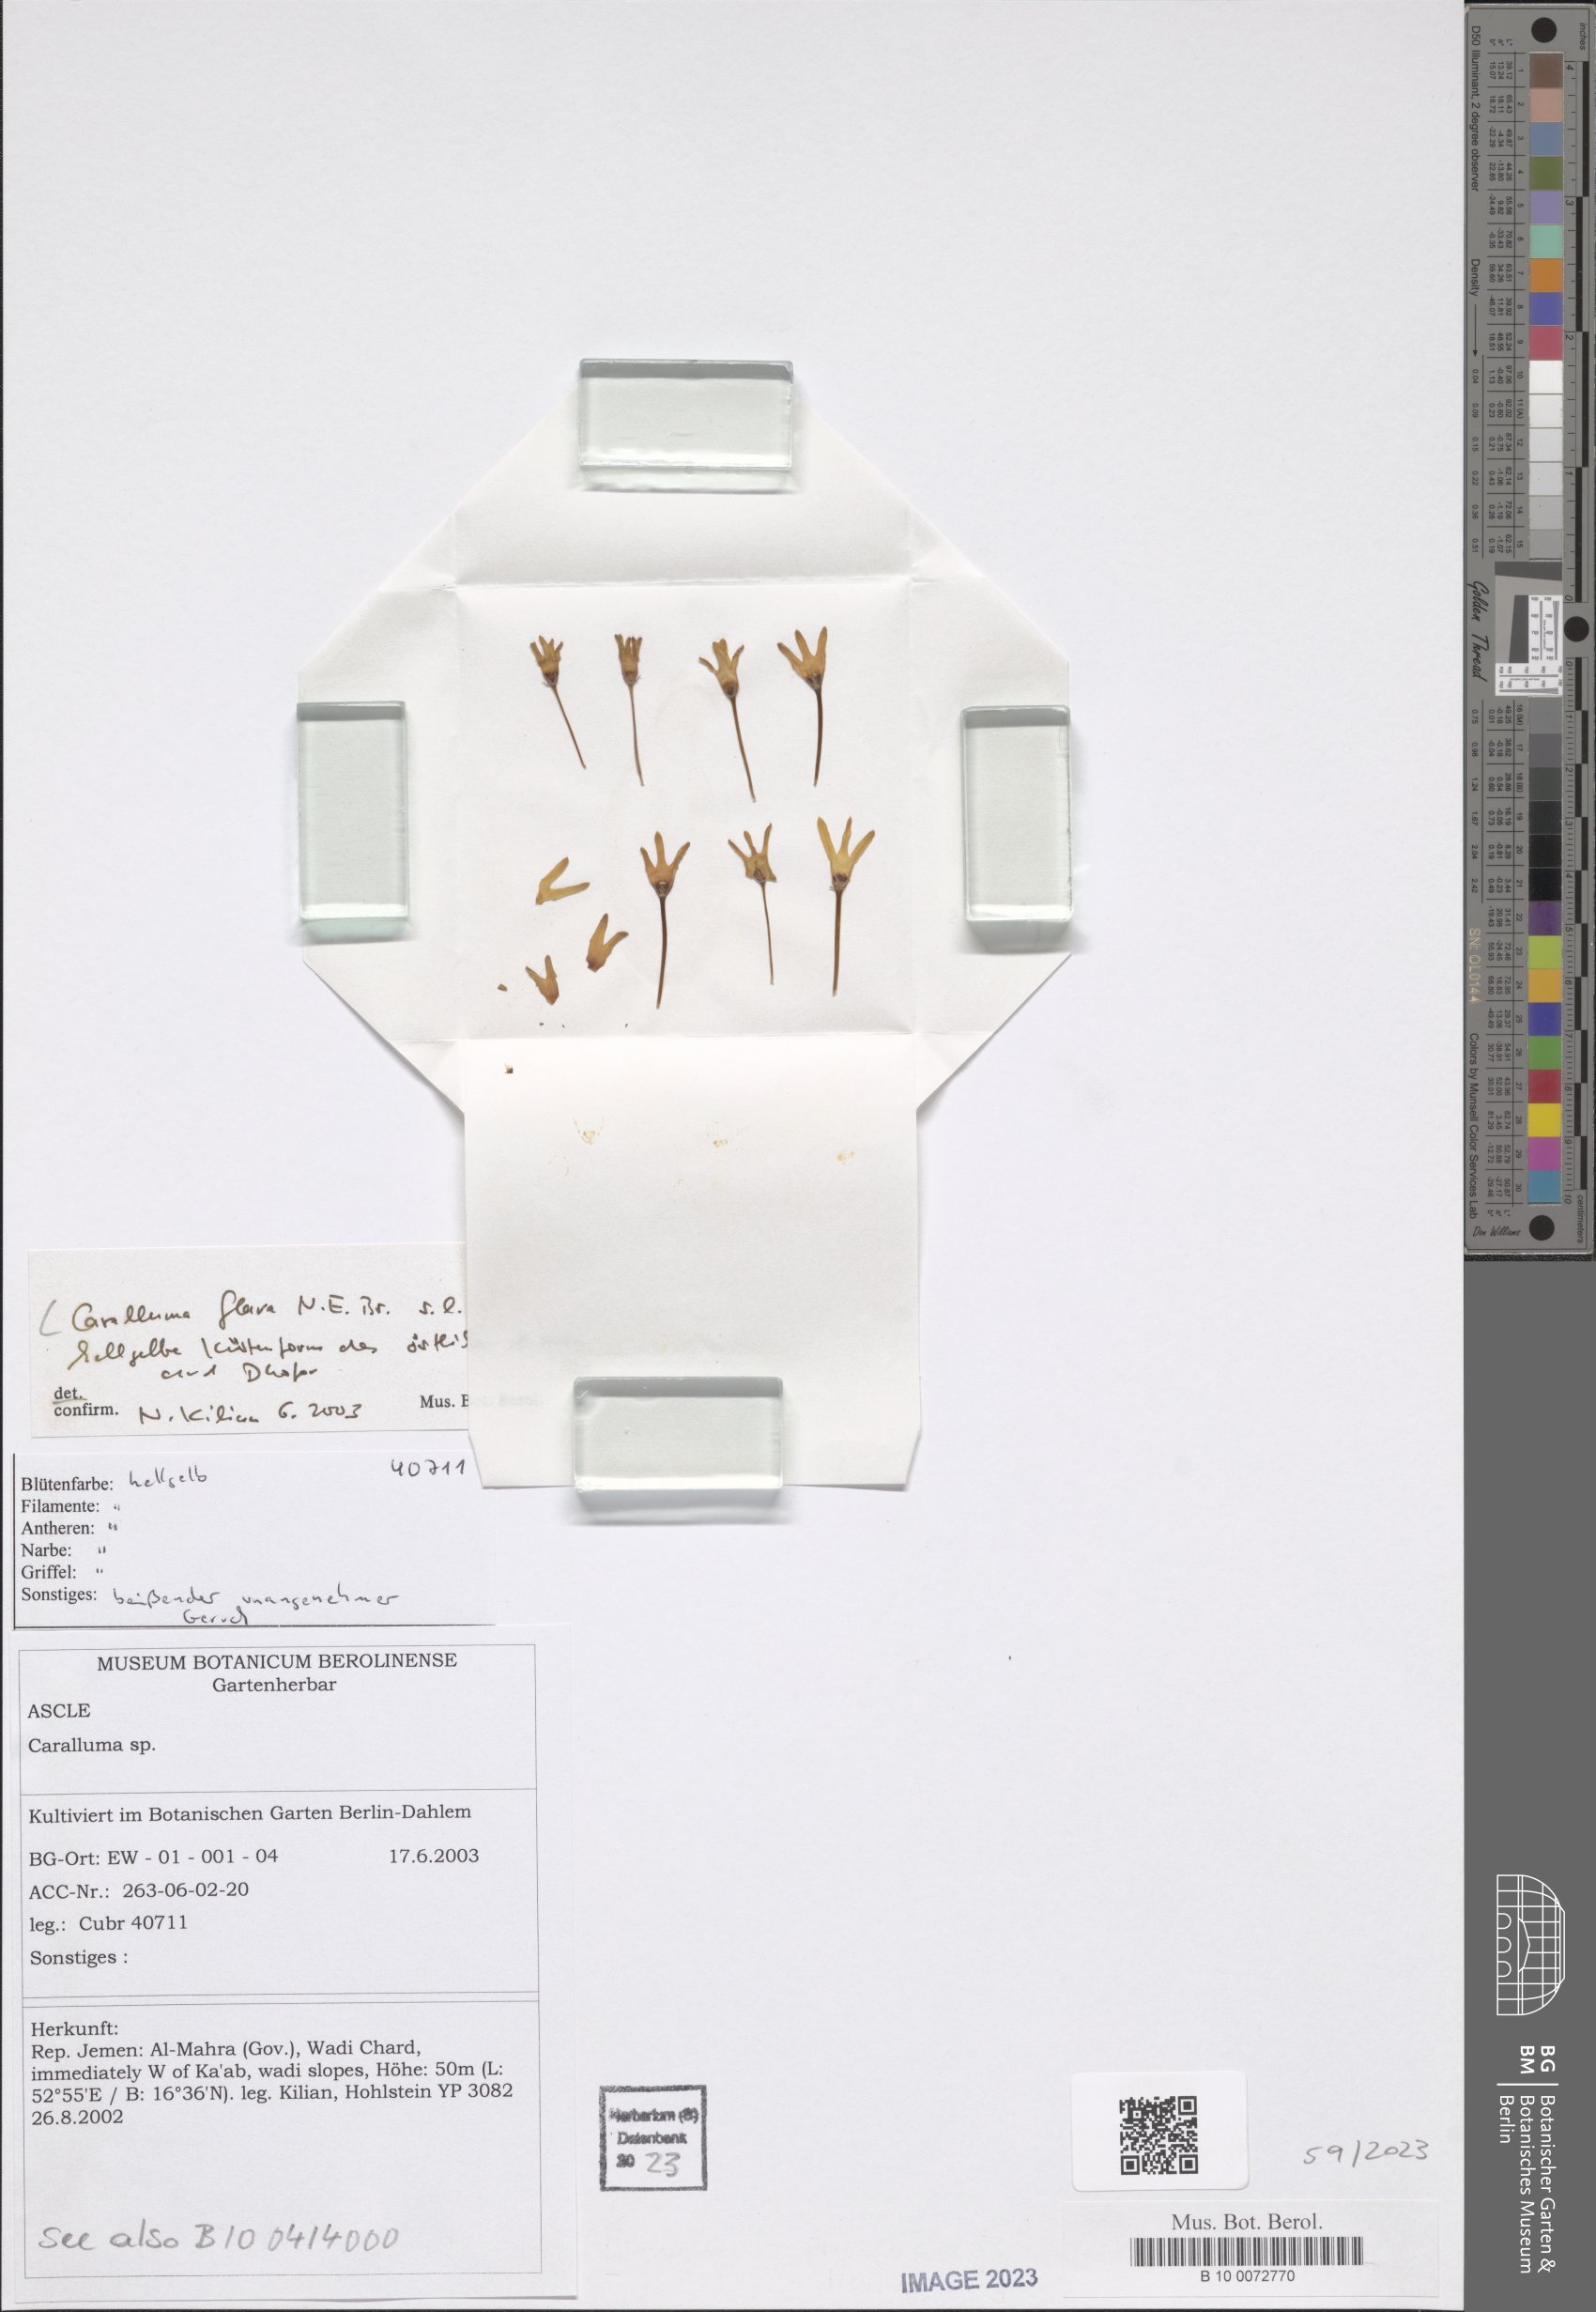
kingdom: Plantae
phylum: Tracheophyta
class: Magnoliopsida
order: Gentianales
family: Apocynaceae
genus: Ceropegia
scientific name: Ceropegia flava
